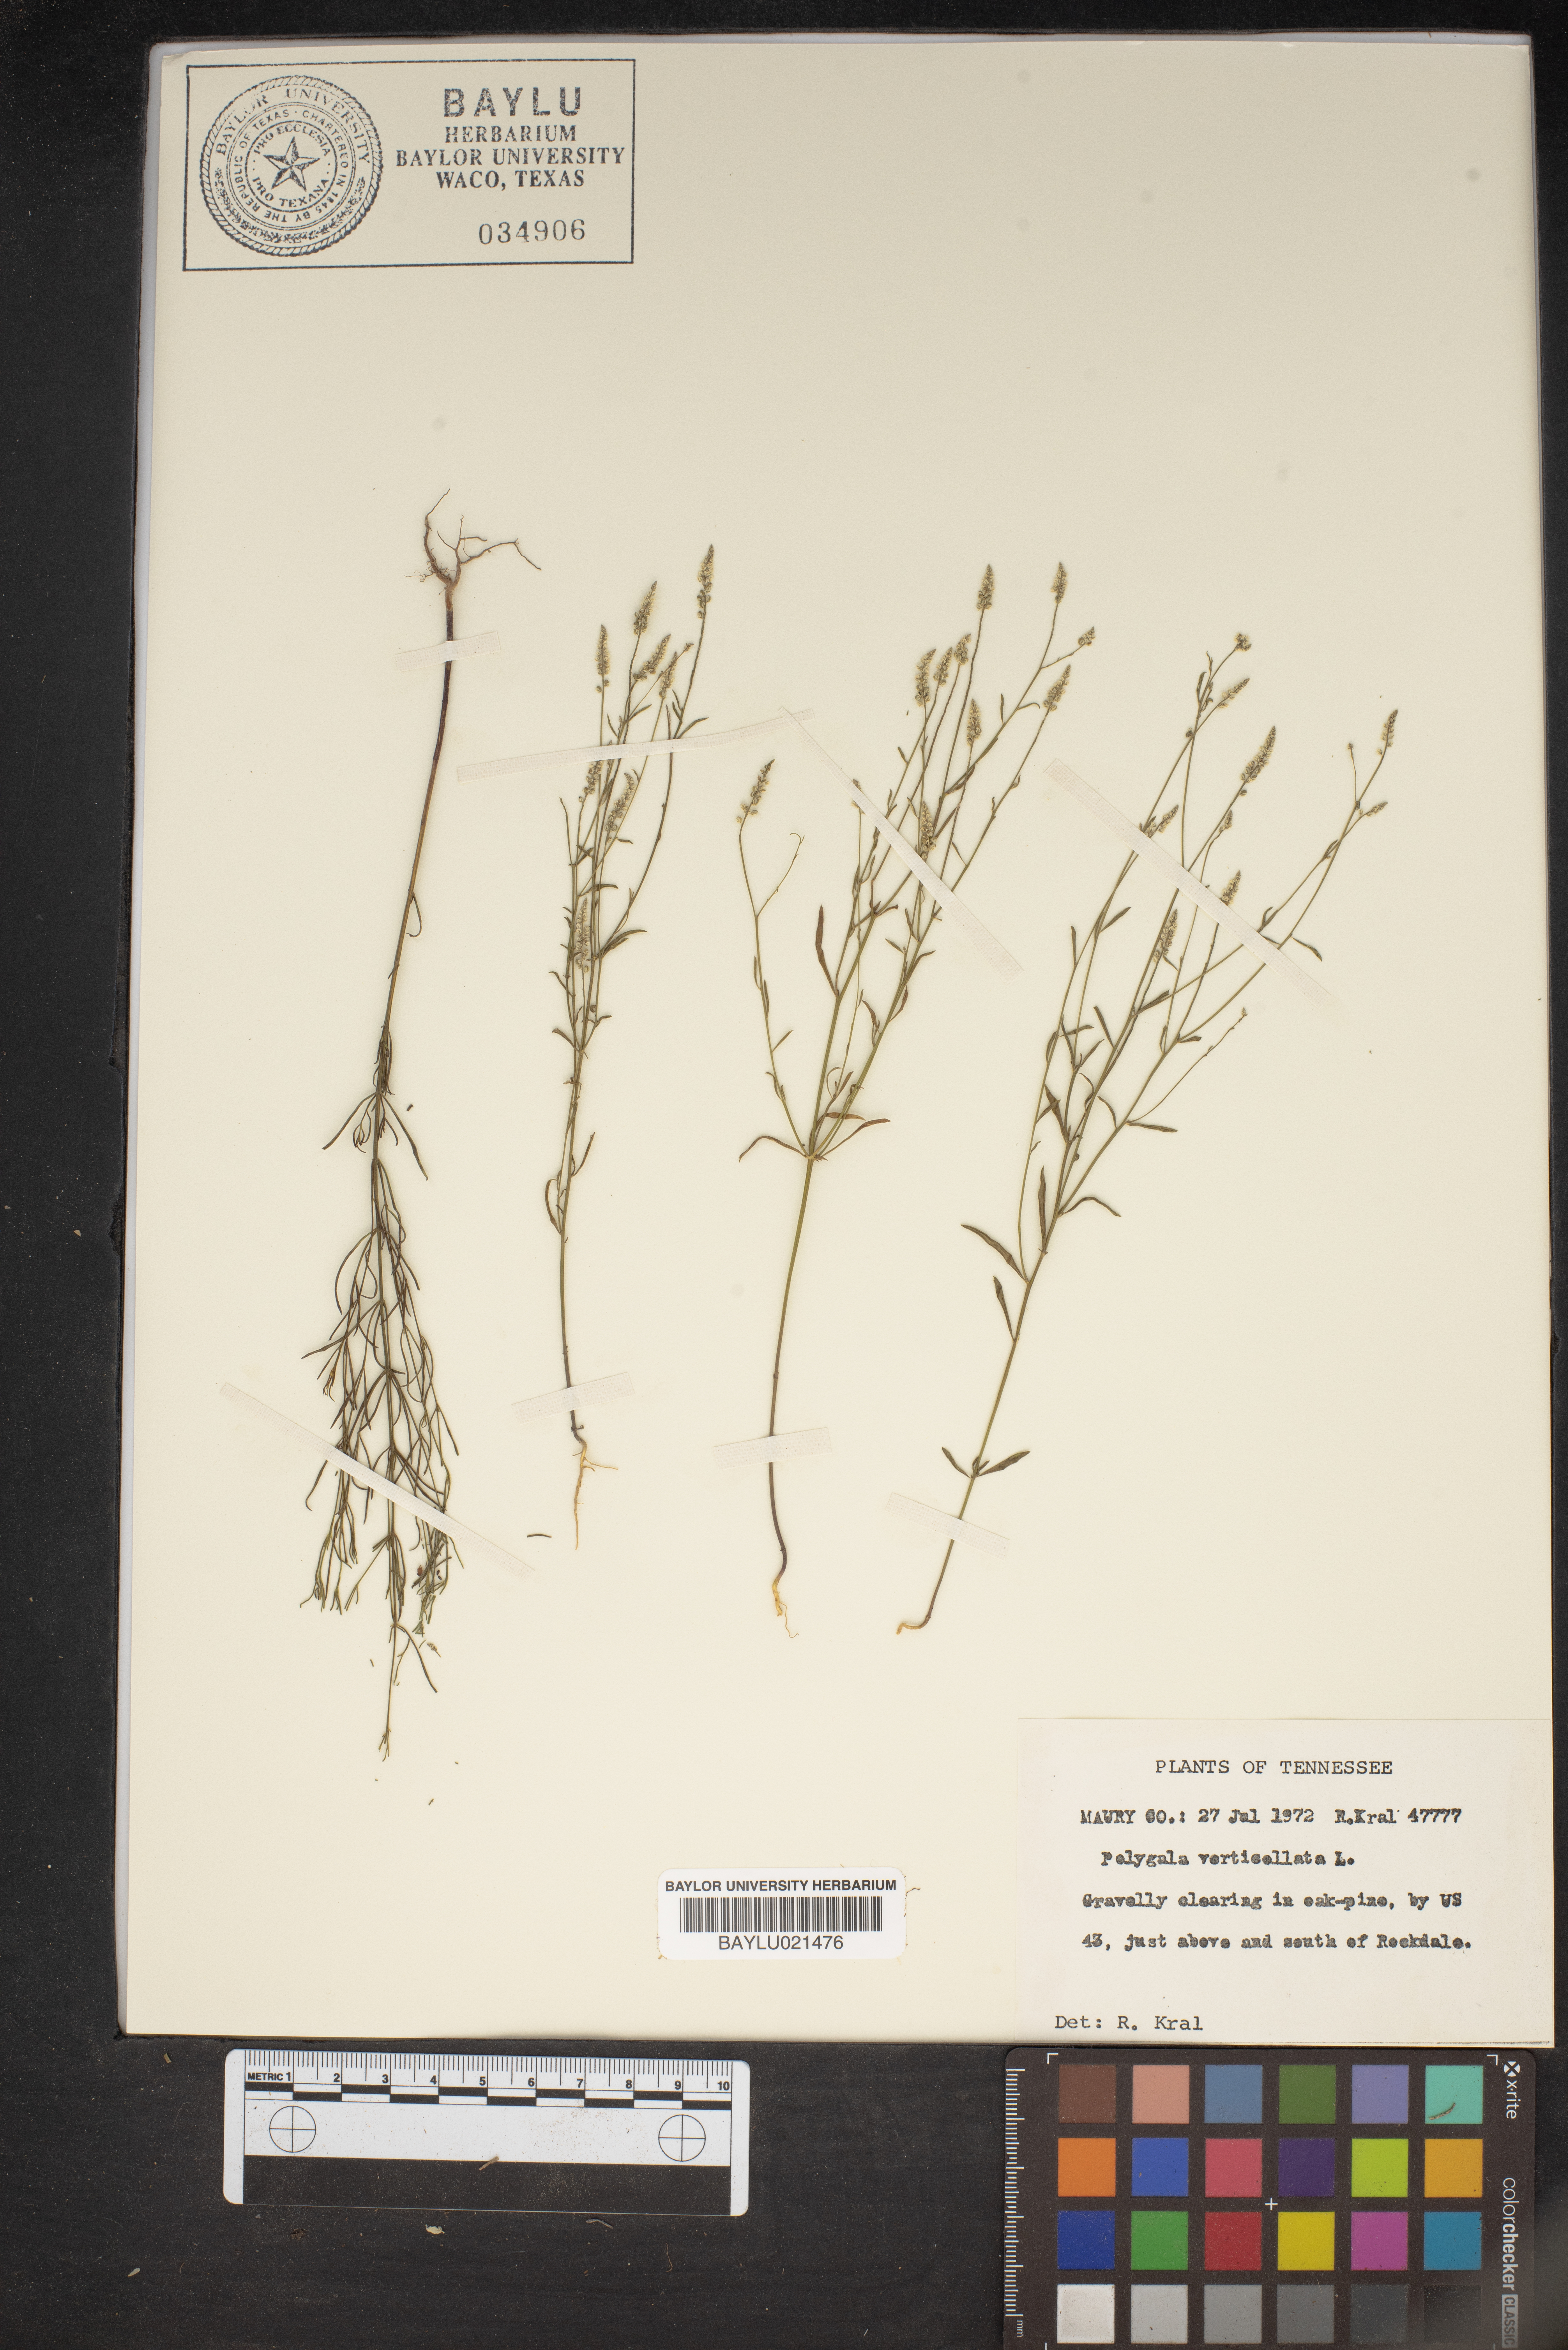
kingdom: Plantae
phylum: Tracheophyta
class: Magnoliopsida
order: Fabales
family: Polygalaceae
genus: Polygala
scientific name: Polygala verticillata
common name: Whorl milkwort
